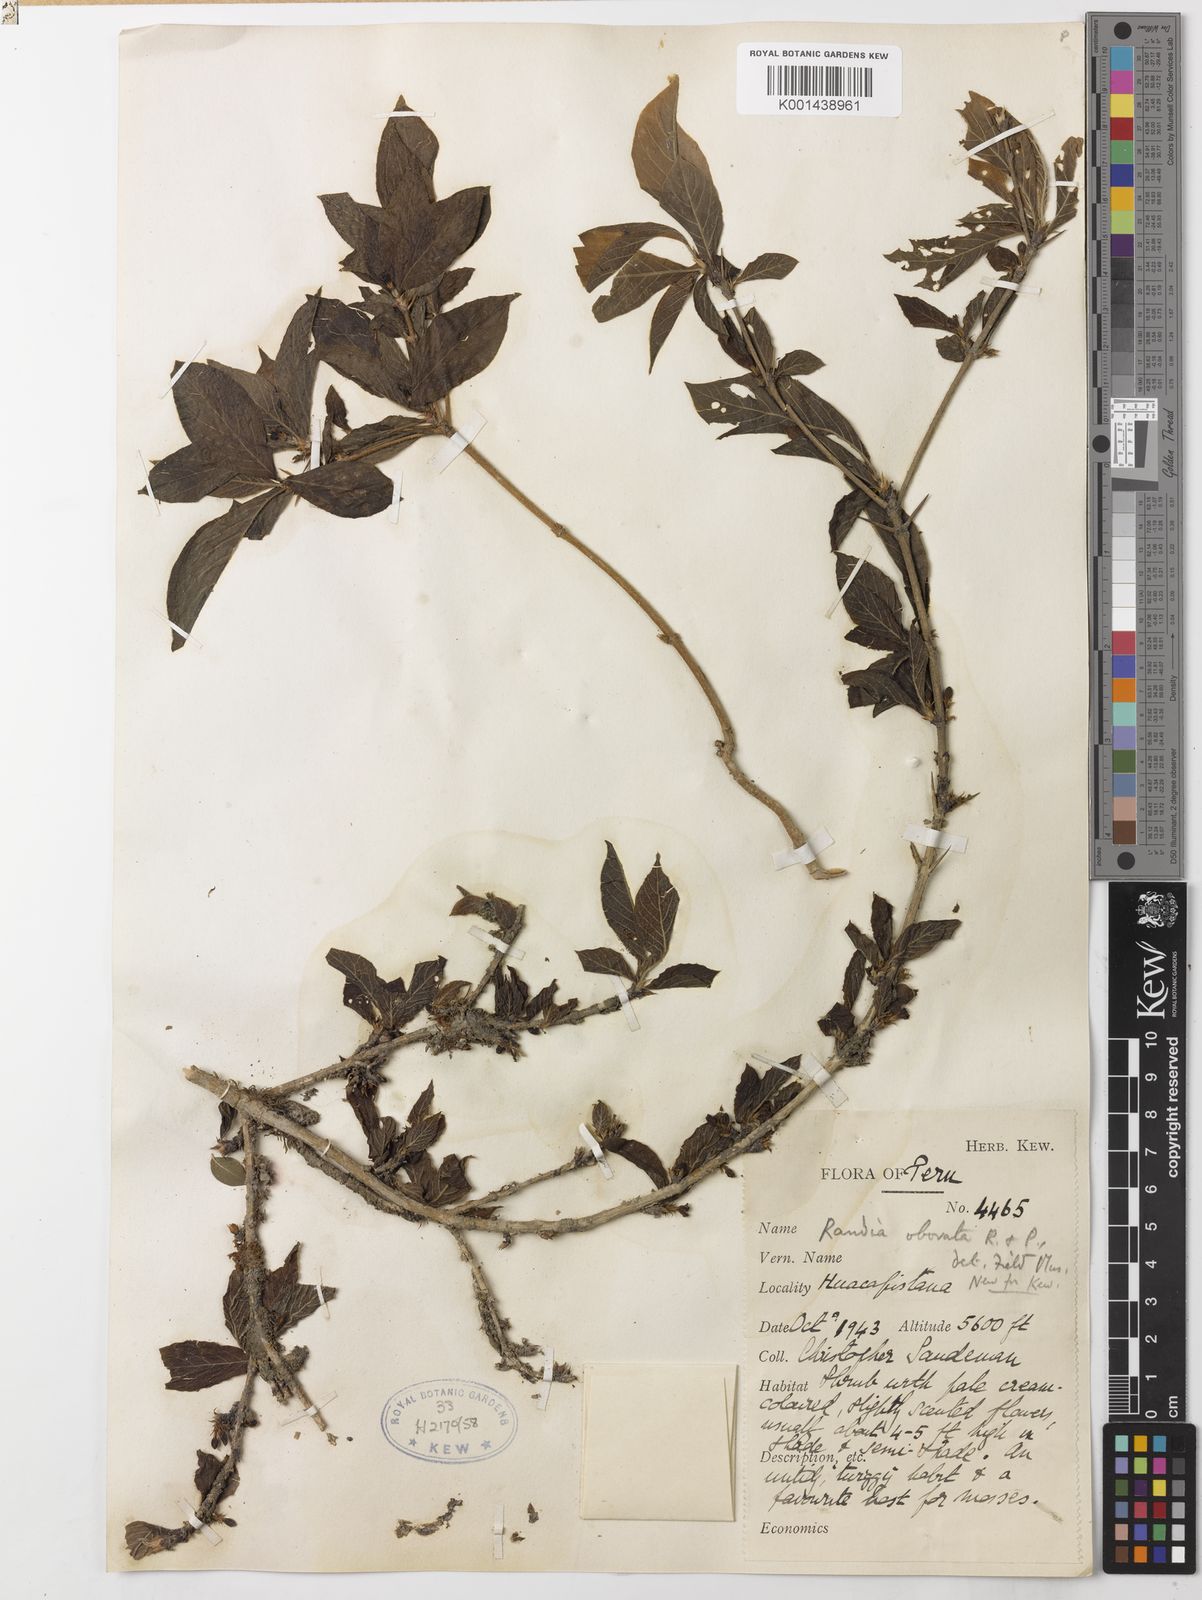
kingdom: Plantae
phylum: Tracheophyta
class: Magnoliopsida
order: Gentianales
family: Rubiaceae
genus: Randia
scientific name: Randia obovata
